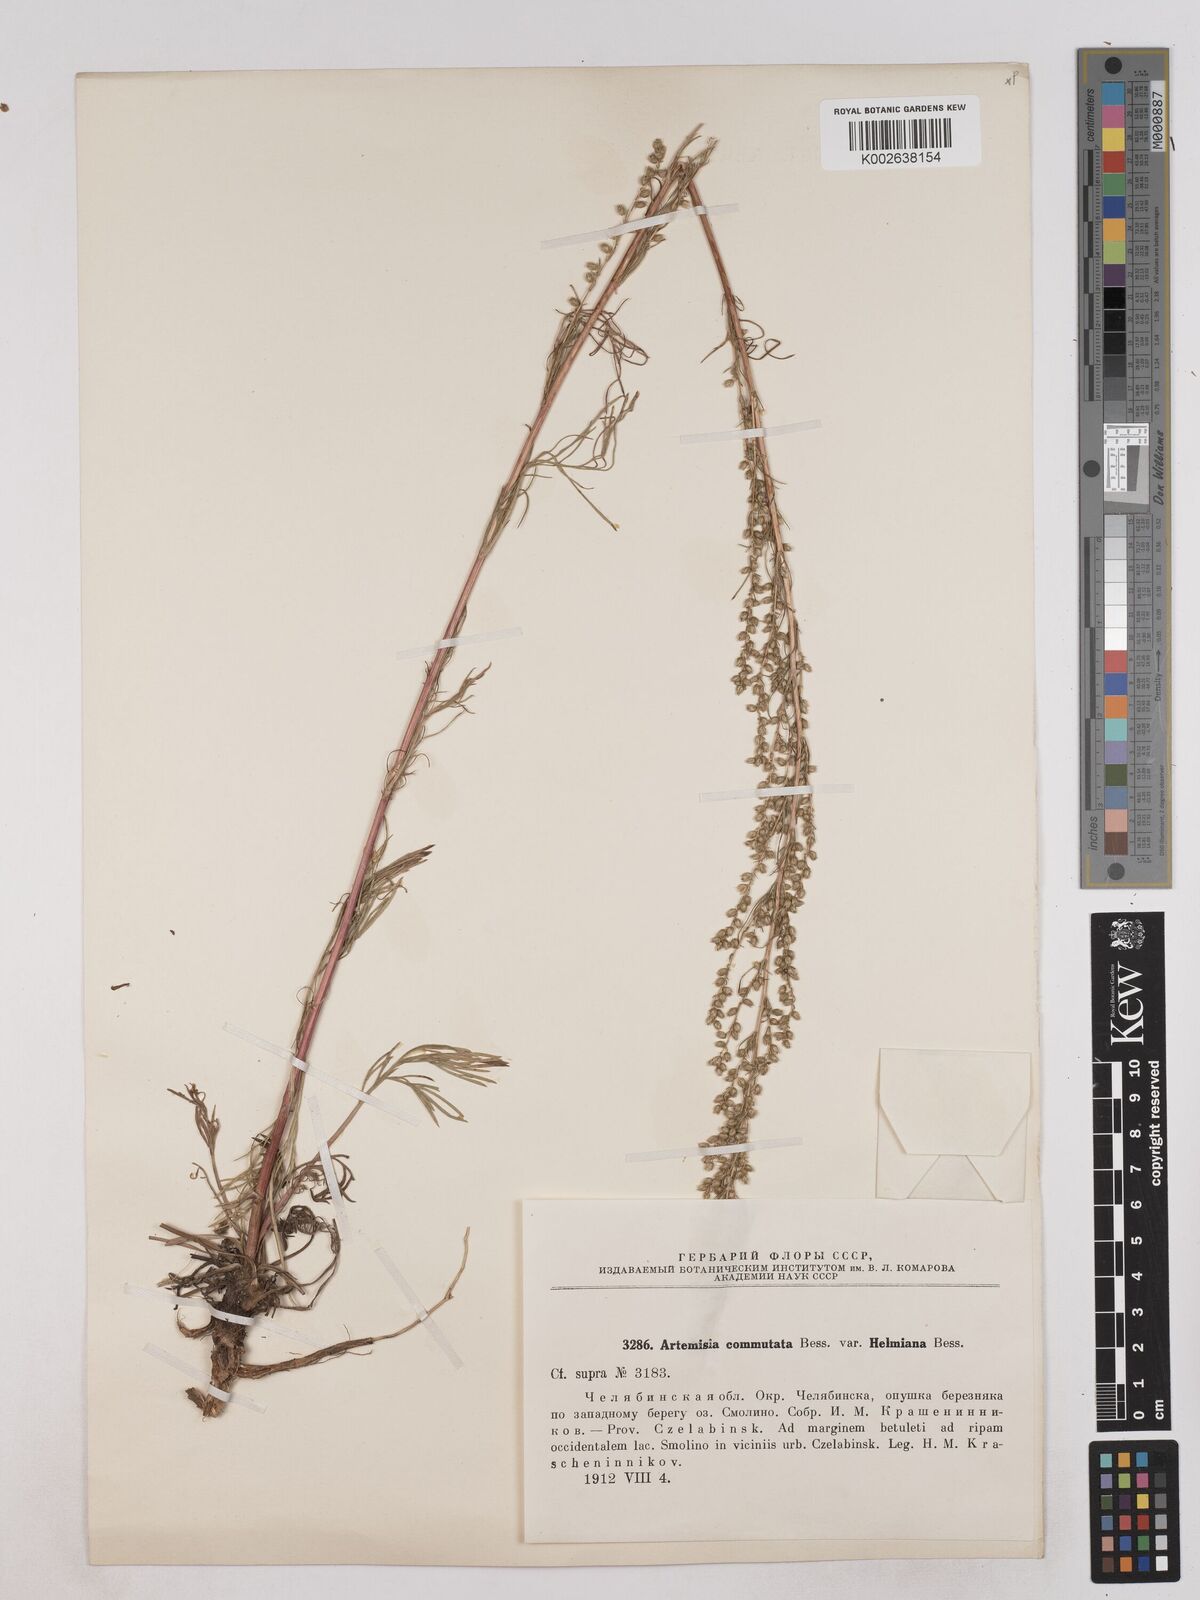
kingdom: Plantae
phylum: Tracheophyta
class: Magnoliopsida
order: Asterales
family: Asteraceae
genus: Artemisia
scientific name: Artemisia pubescens
